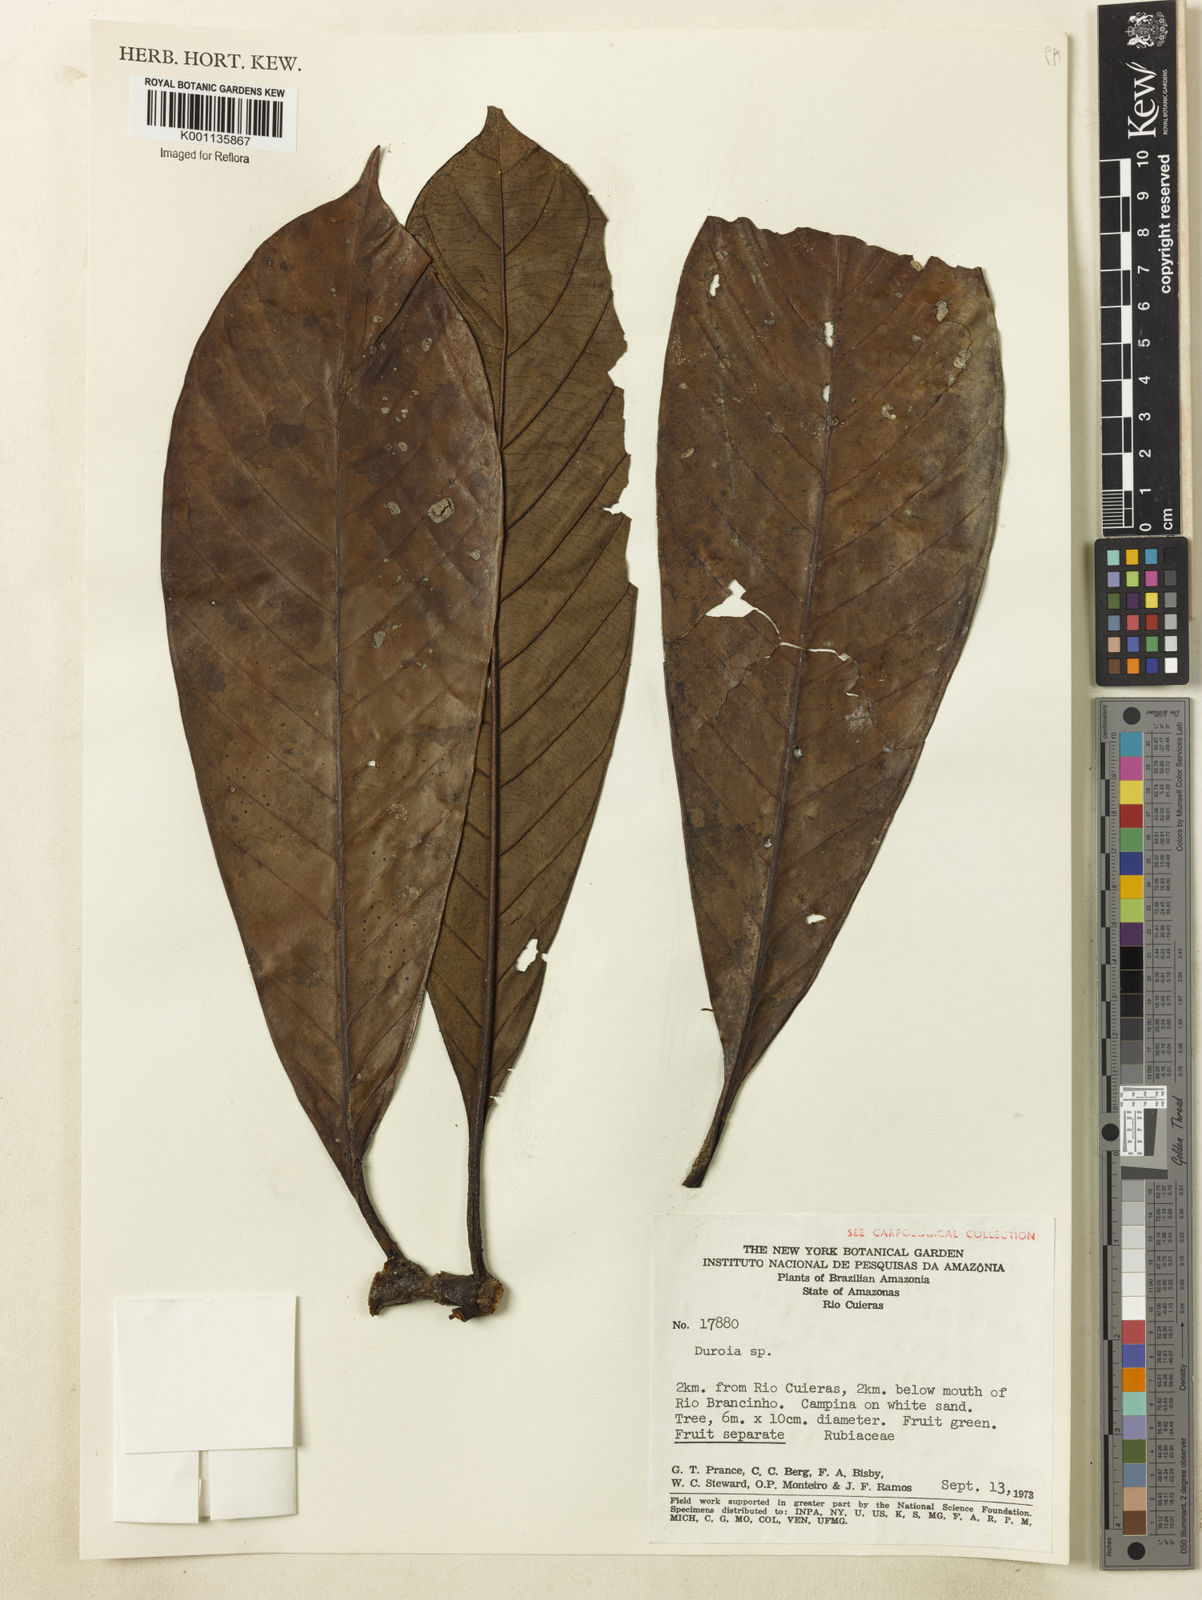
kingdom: Plantae
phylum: Tracheophyta
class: Magnoliopsida
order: Gentianales
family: Rubiaceae
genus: Duroia
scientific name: Duroia
